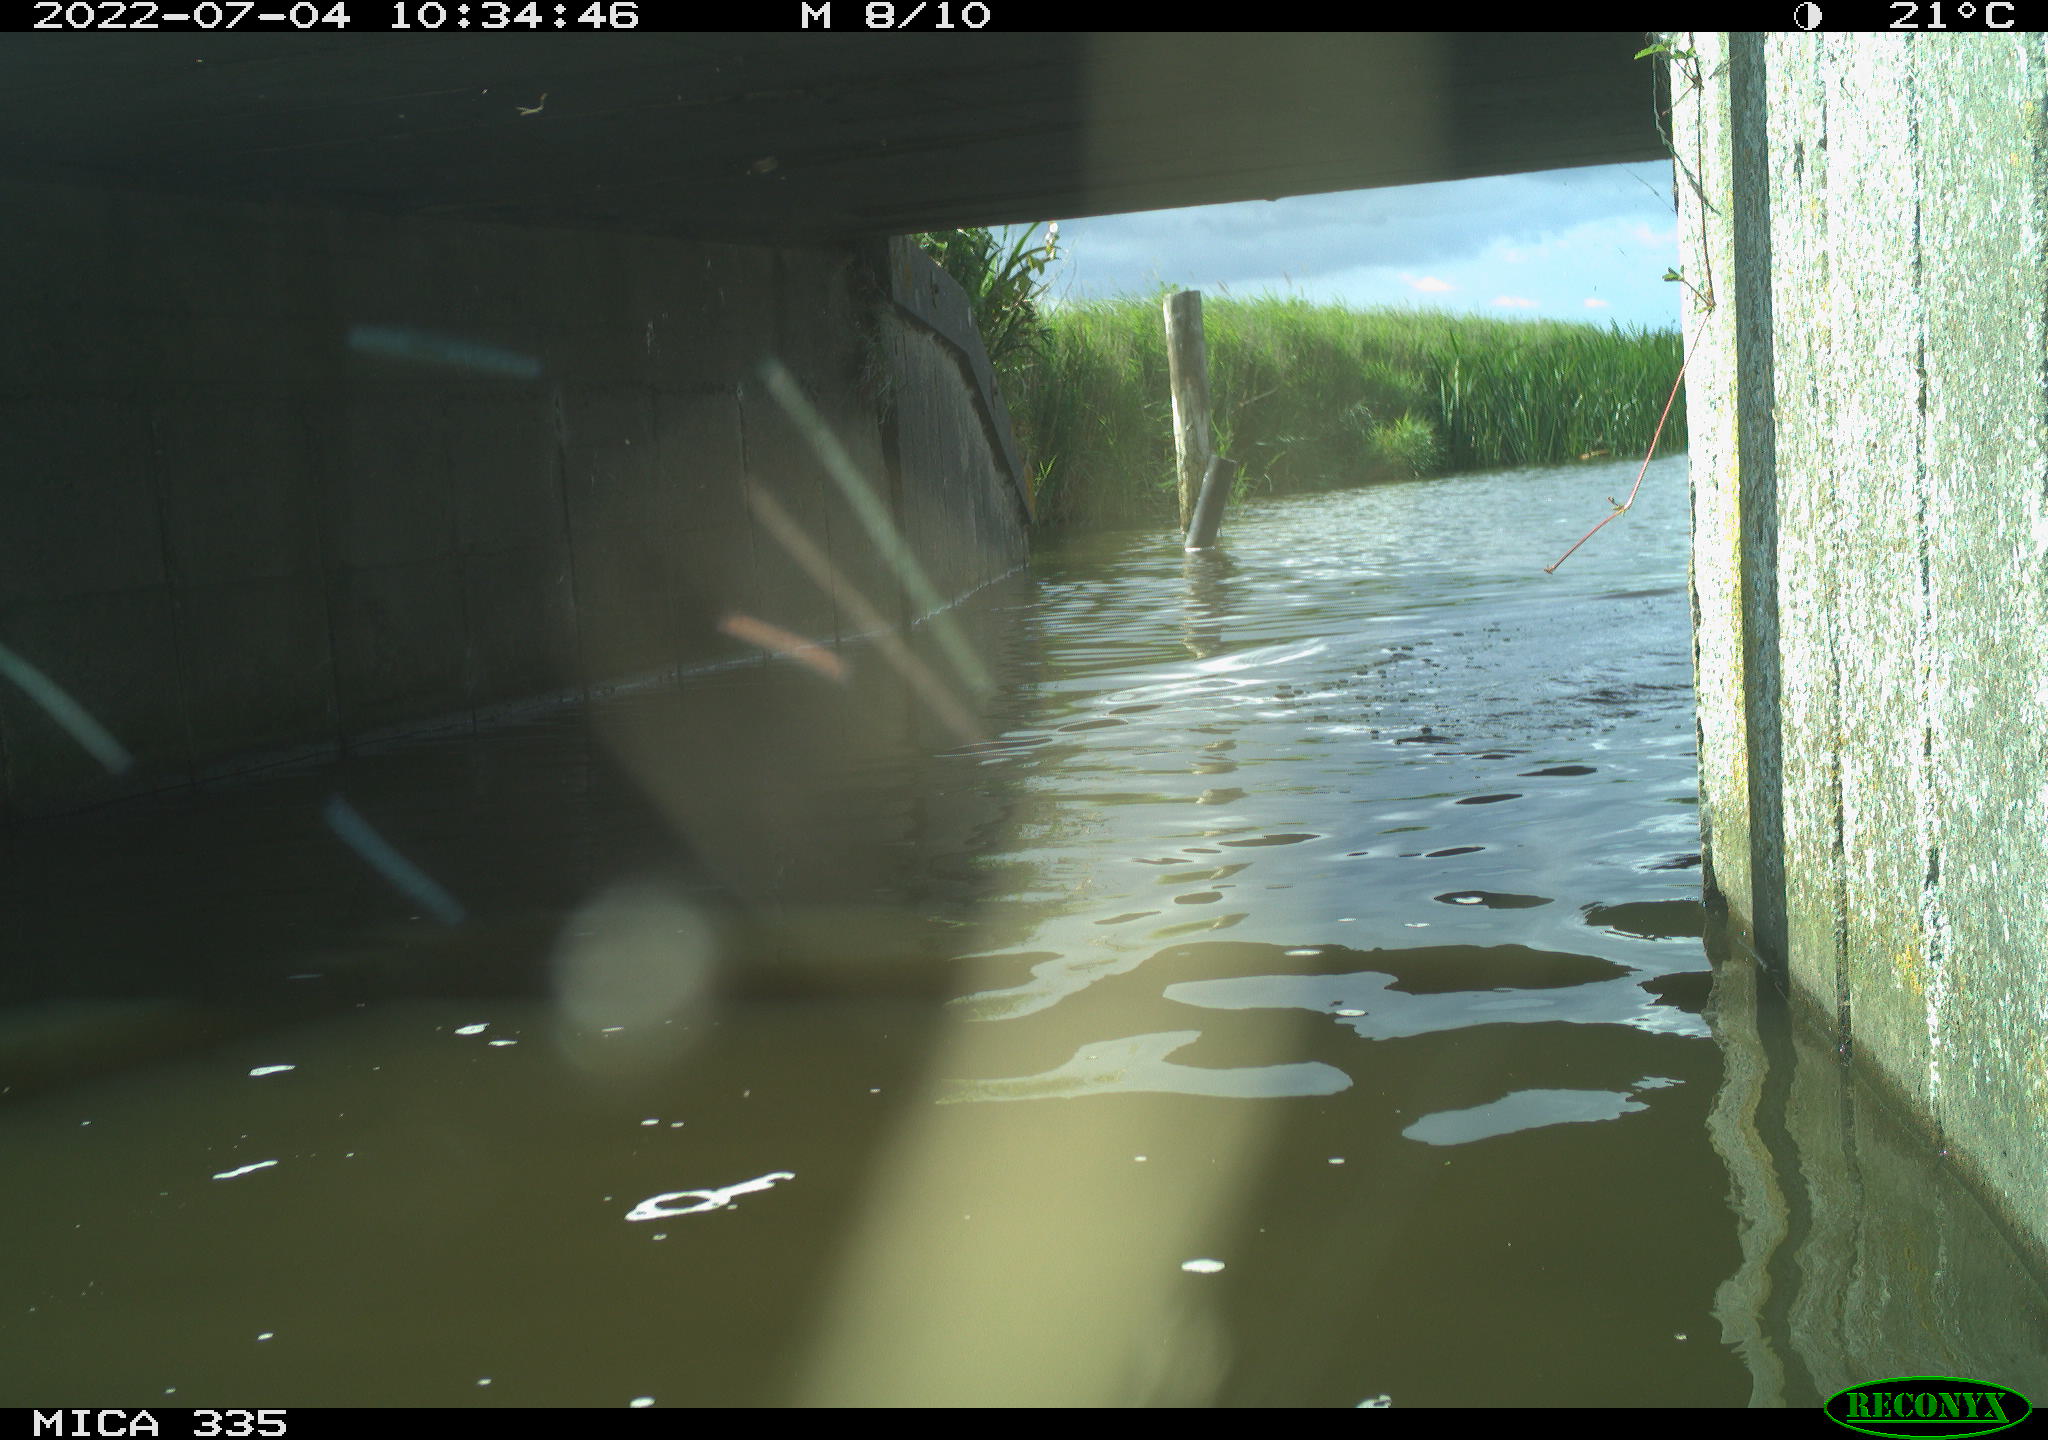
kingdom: Animalia
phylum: Chordata
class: Aves
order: Anseriformes
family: Anatidae
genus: Anas
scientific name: Anas platyrhynchos
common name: Mallard
